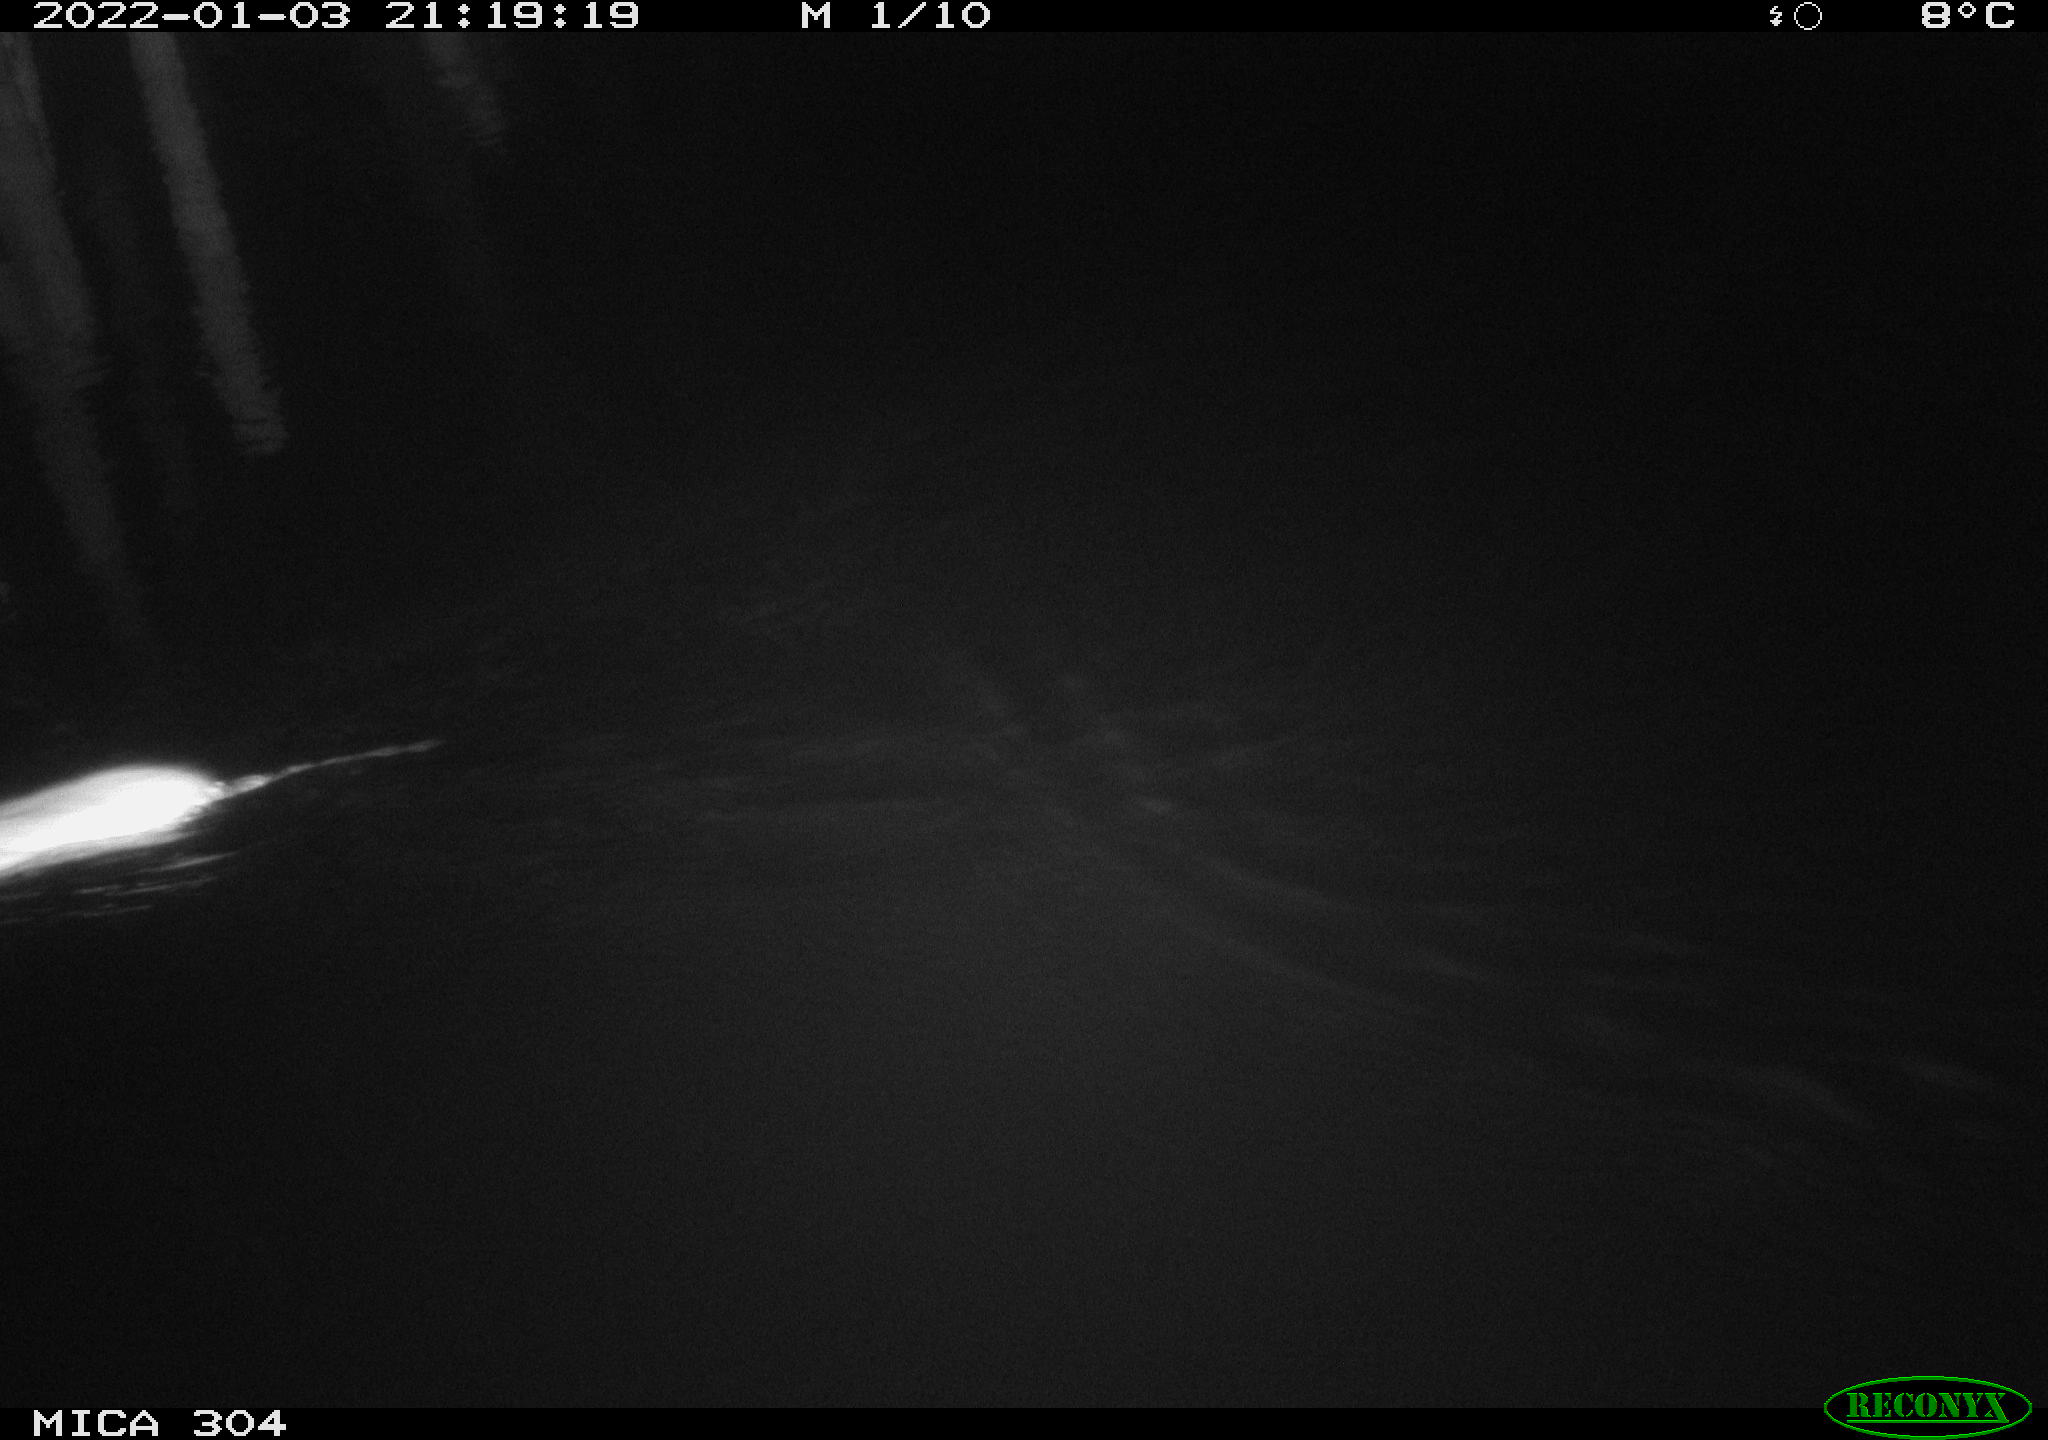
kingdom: Animalia
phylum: Chordata
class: Mammalia
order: Rodentia
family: Muridae
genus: Rattus
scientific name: Rattus norvegicus
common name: Brown rat
